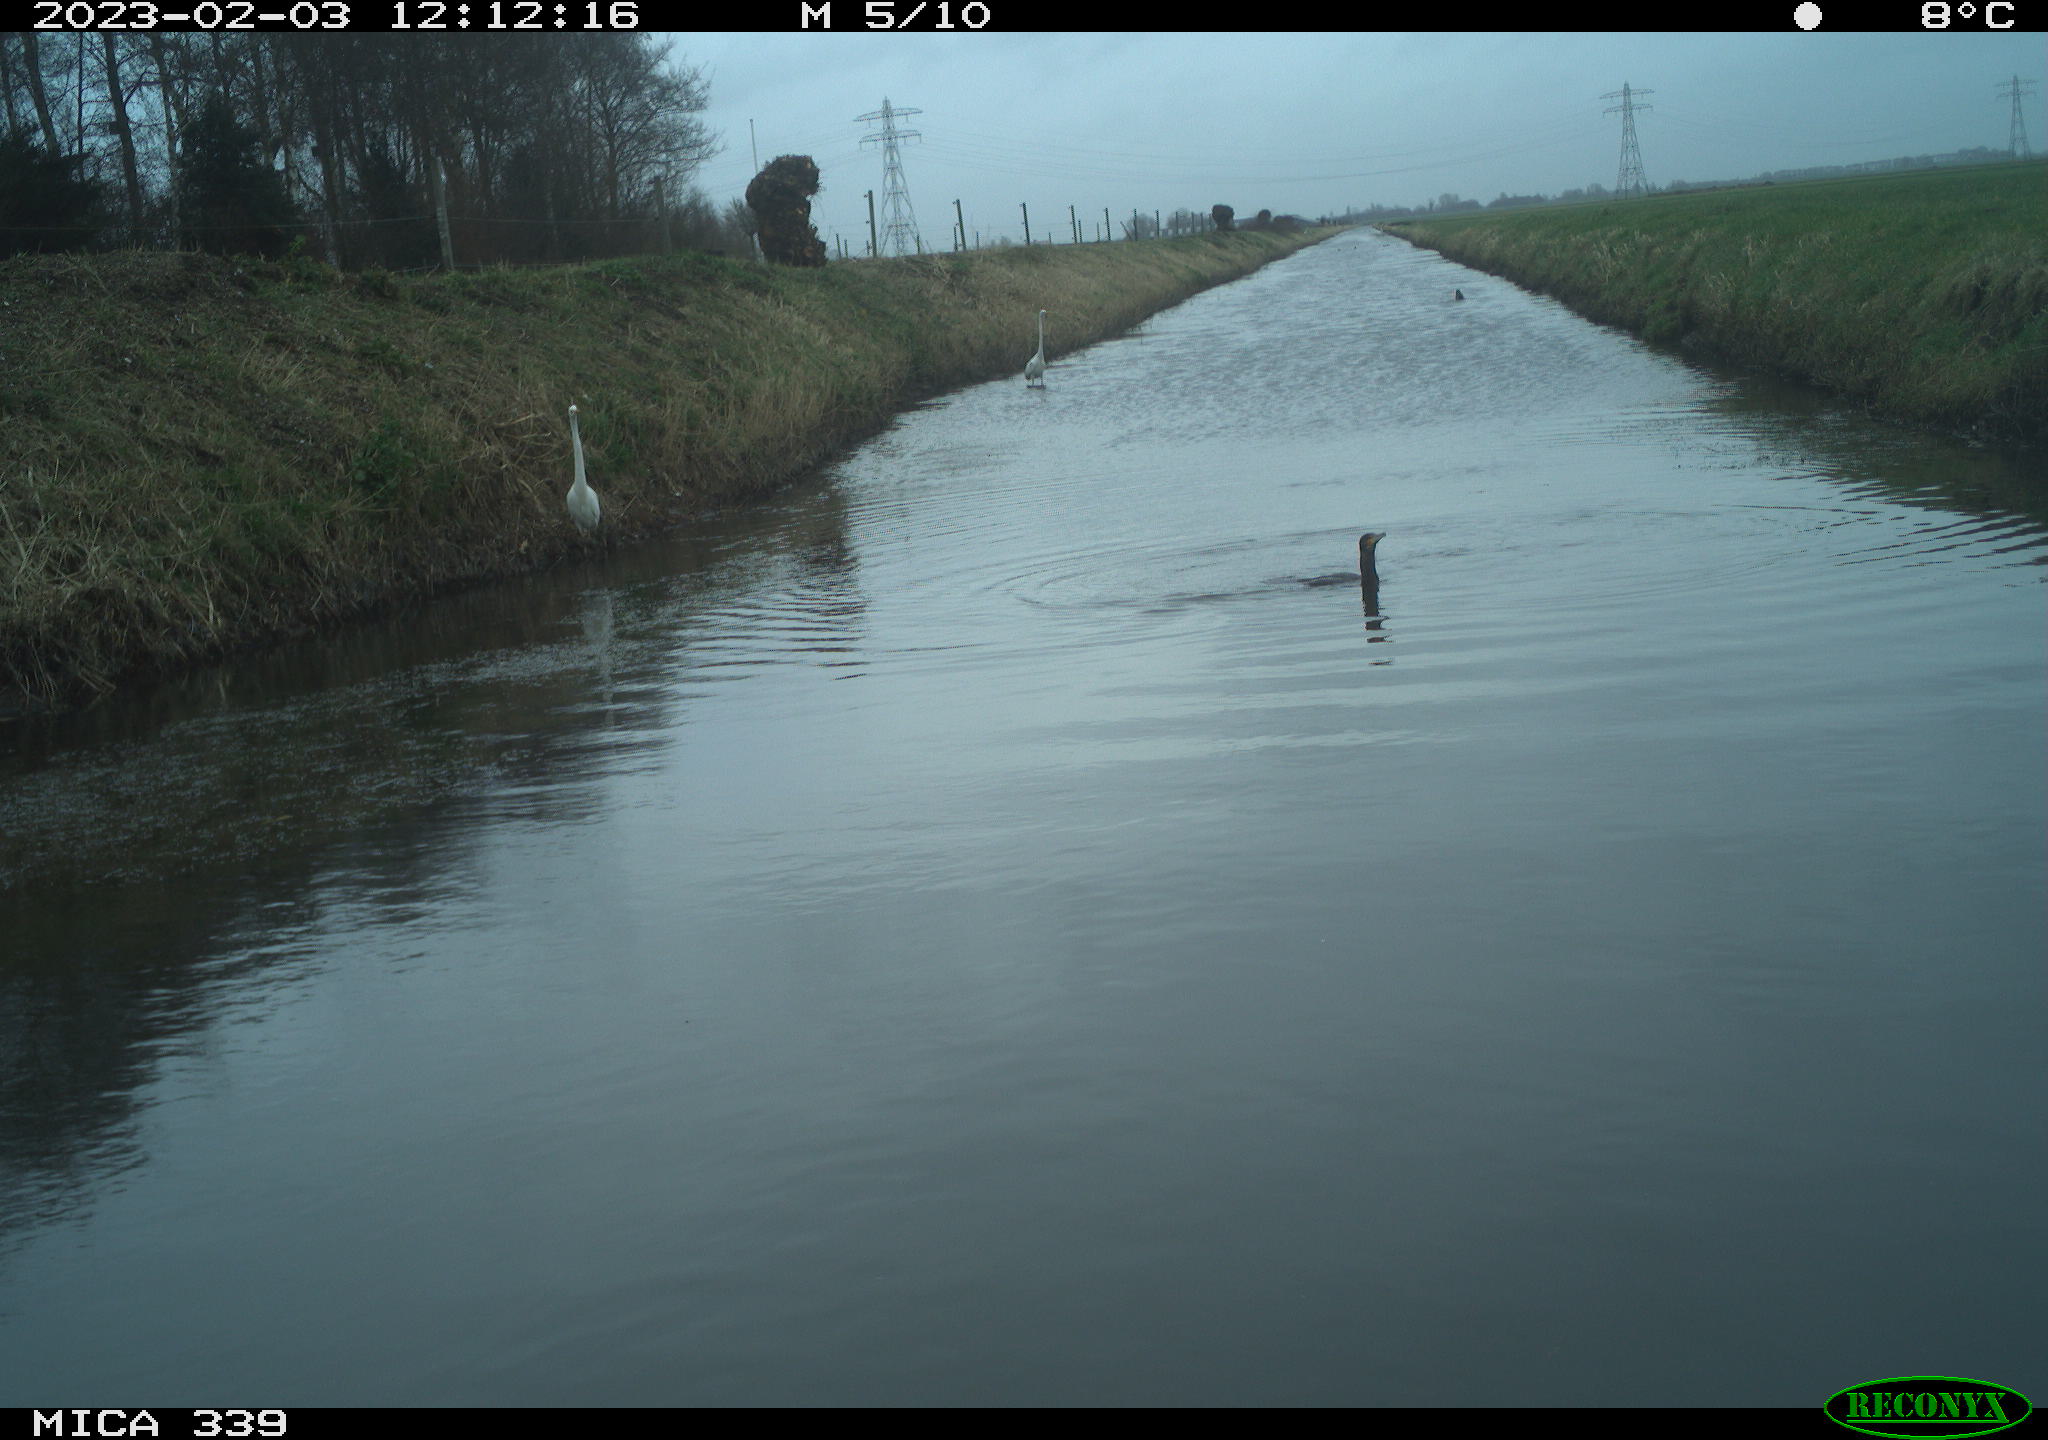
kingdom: Animalia
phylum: Chordata
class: Aves
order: Suliformes
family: Phalacrocoracidae
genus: Phalacrocorax
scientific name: Phalacrocorax carbo
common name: Great cormorant
